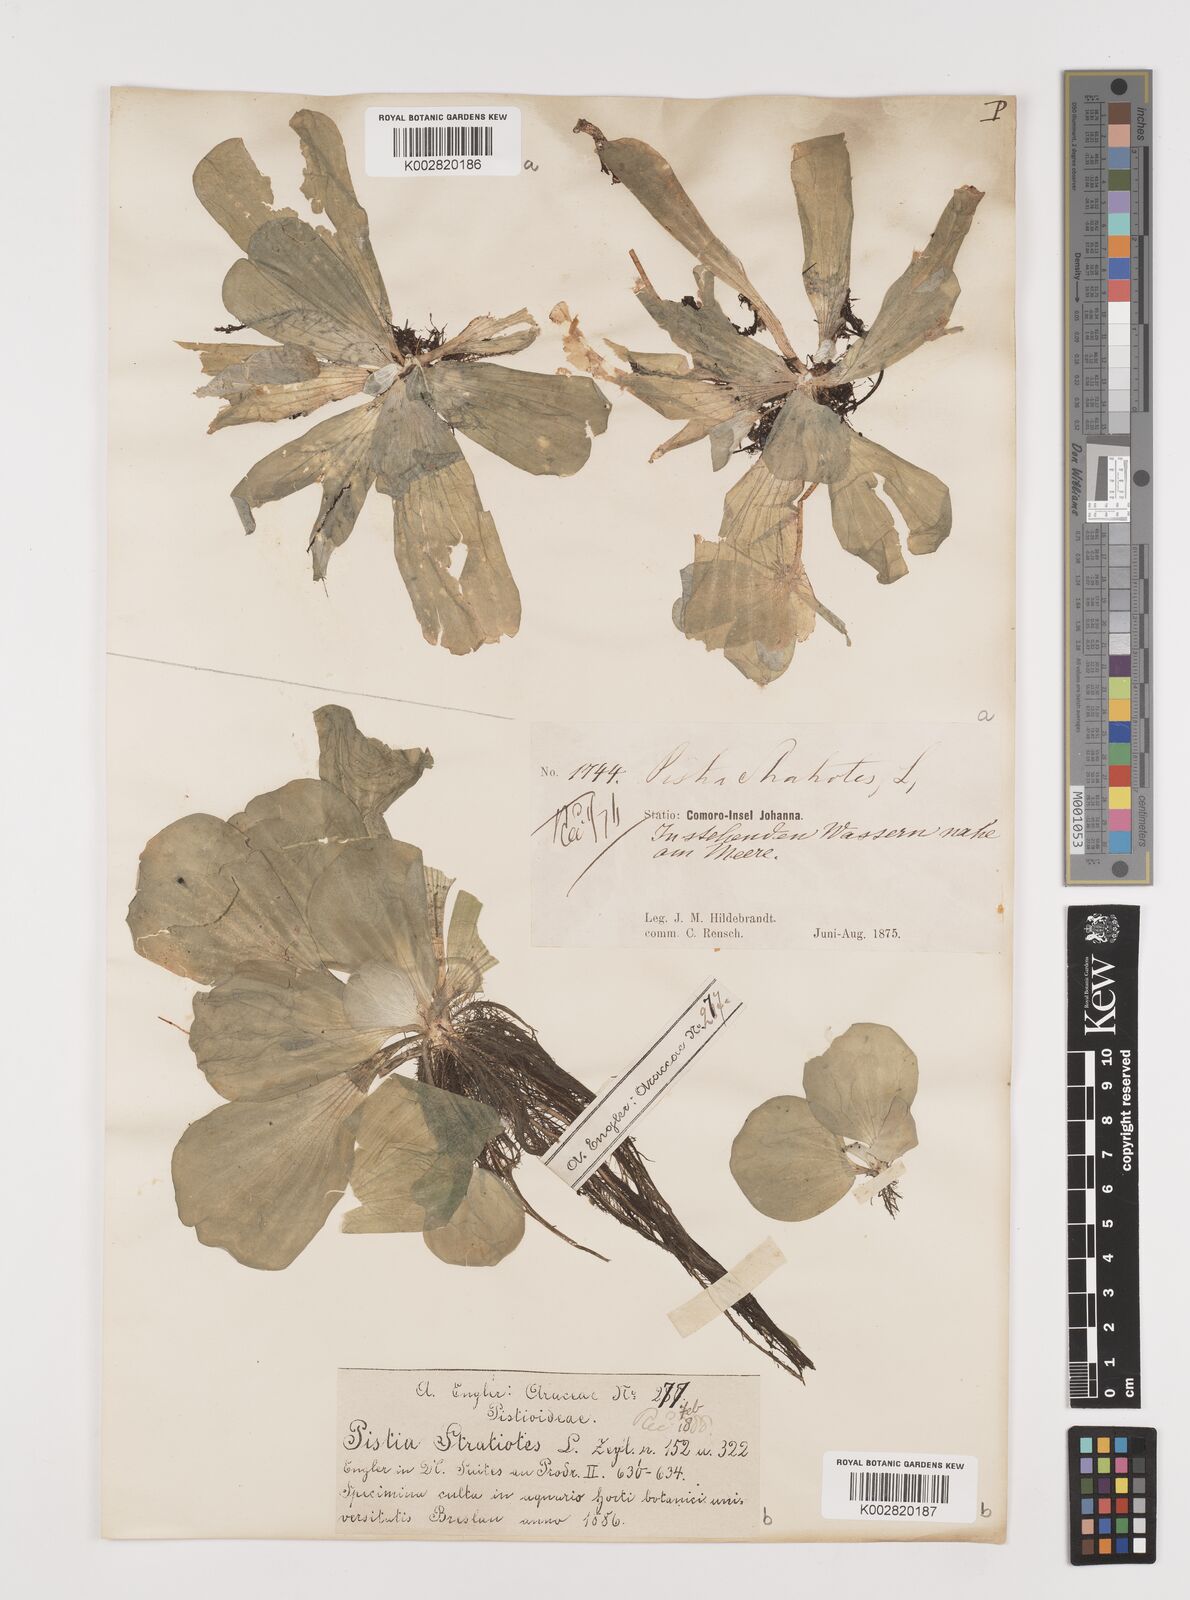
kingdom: Plantae
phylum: Tracheophyta
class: Liliopsida
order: Alismatales
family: Araceae
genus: Pistia
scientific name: Pistia stratiotes
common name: Water lettuce
